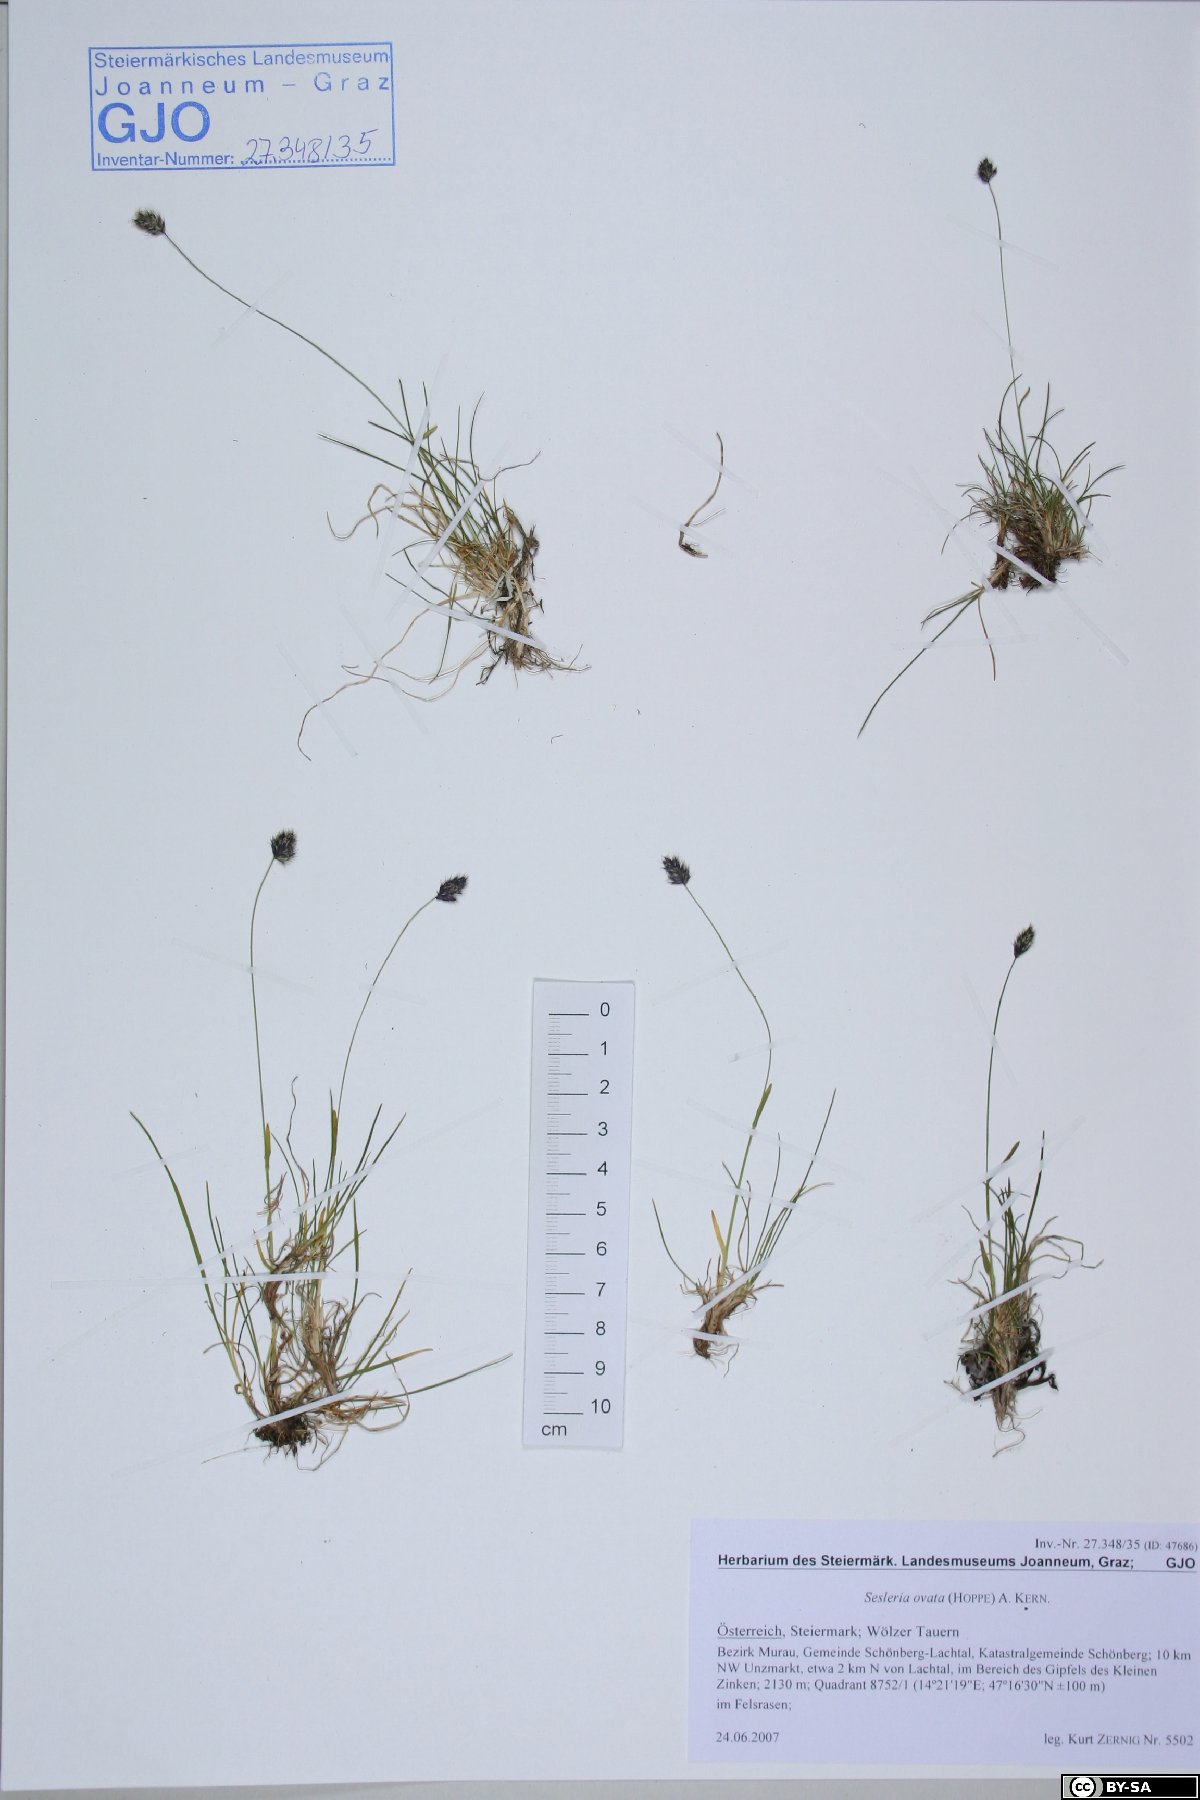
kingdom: Plantae
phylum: Tracheophyta
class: Liliopsida
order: Poales
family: Poaceae
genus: Psilathera
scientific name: Psilathera ovata
